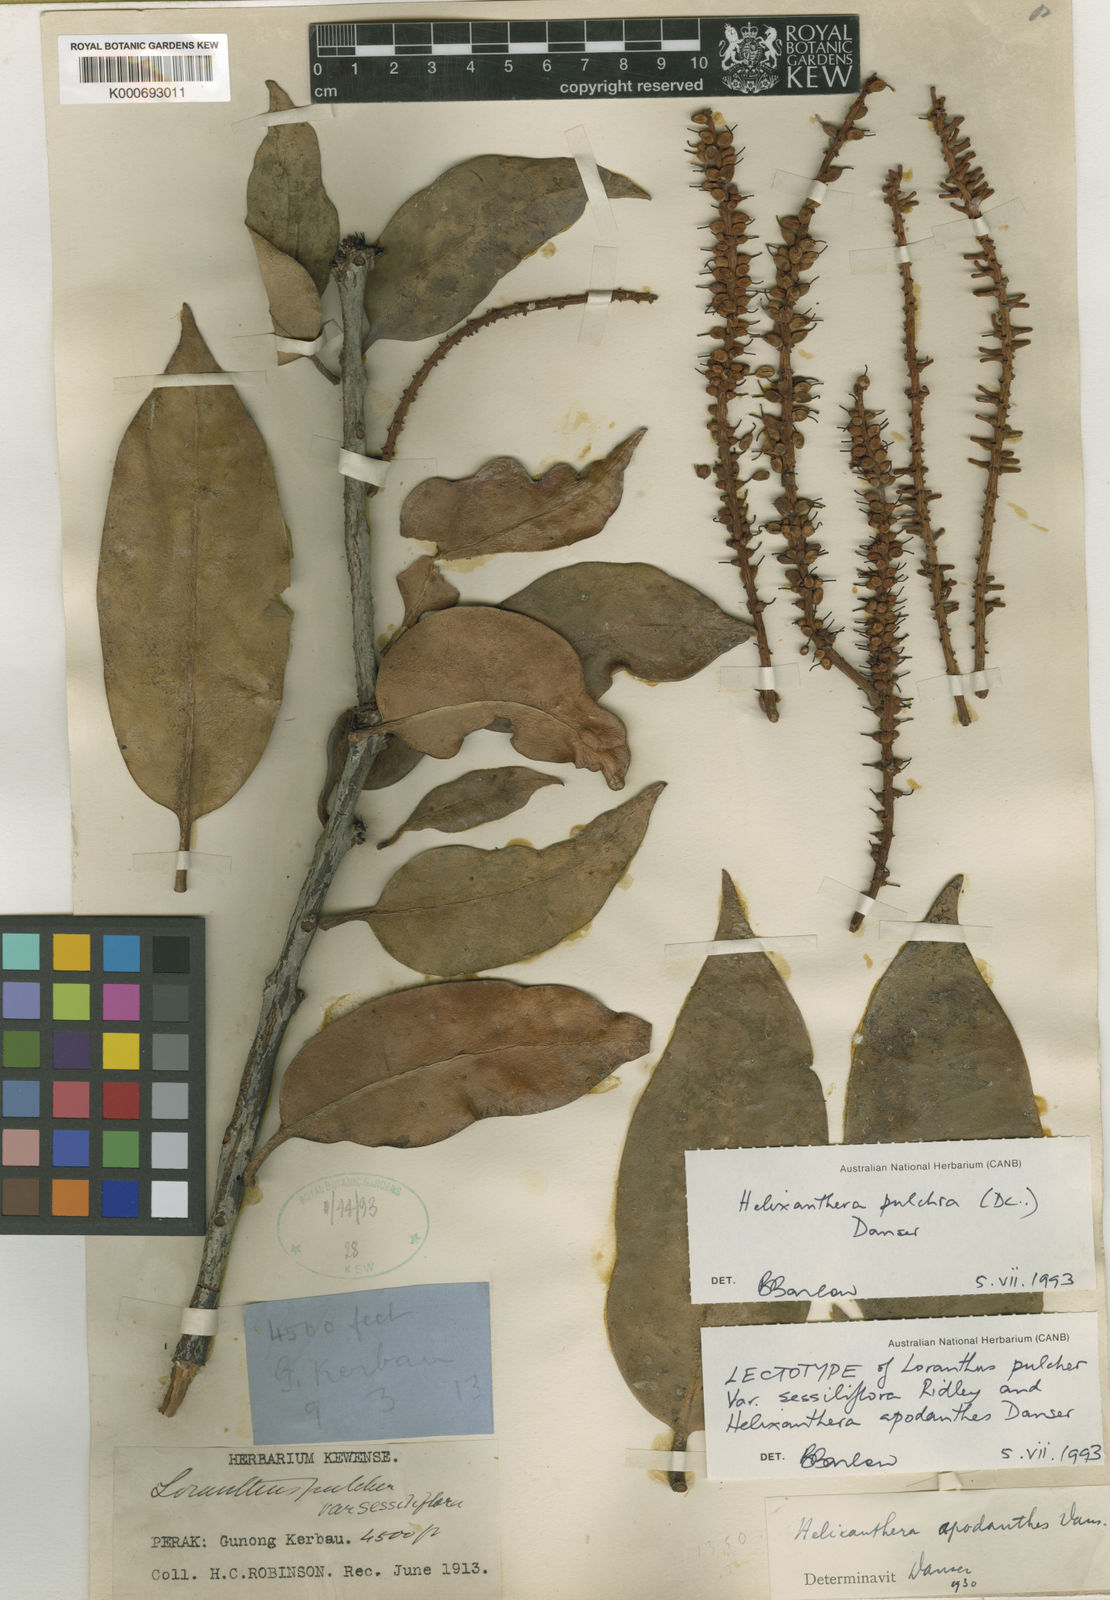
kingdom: Plantae
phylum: Tracheophyta
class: Magnoliopsida
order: Santalales
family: Loranthaceae
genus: Helixanthera
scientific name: Helixanthera pulchra
